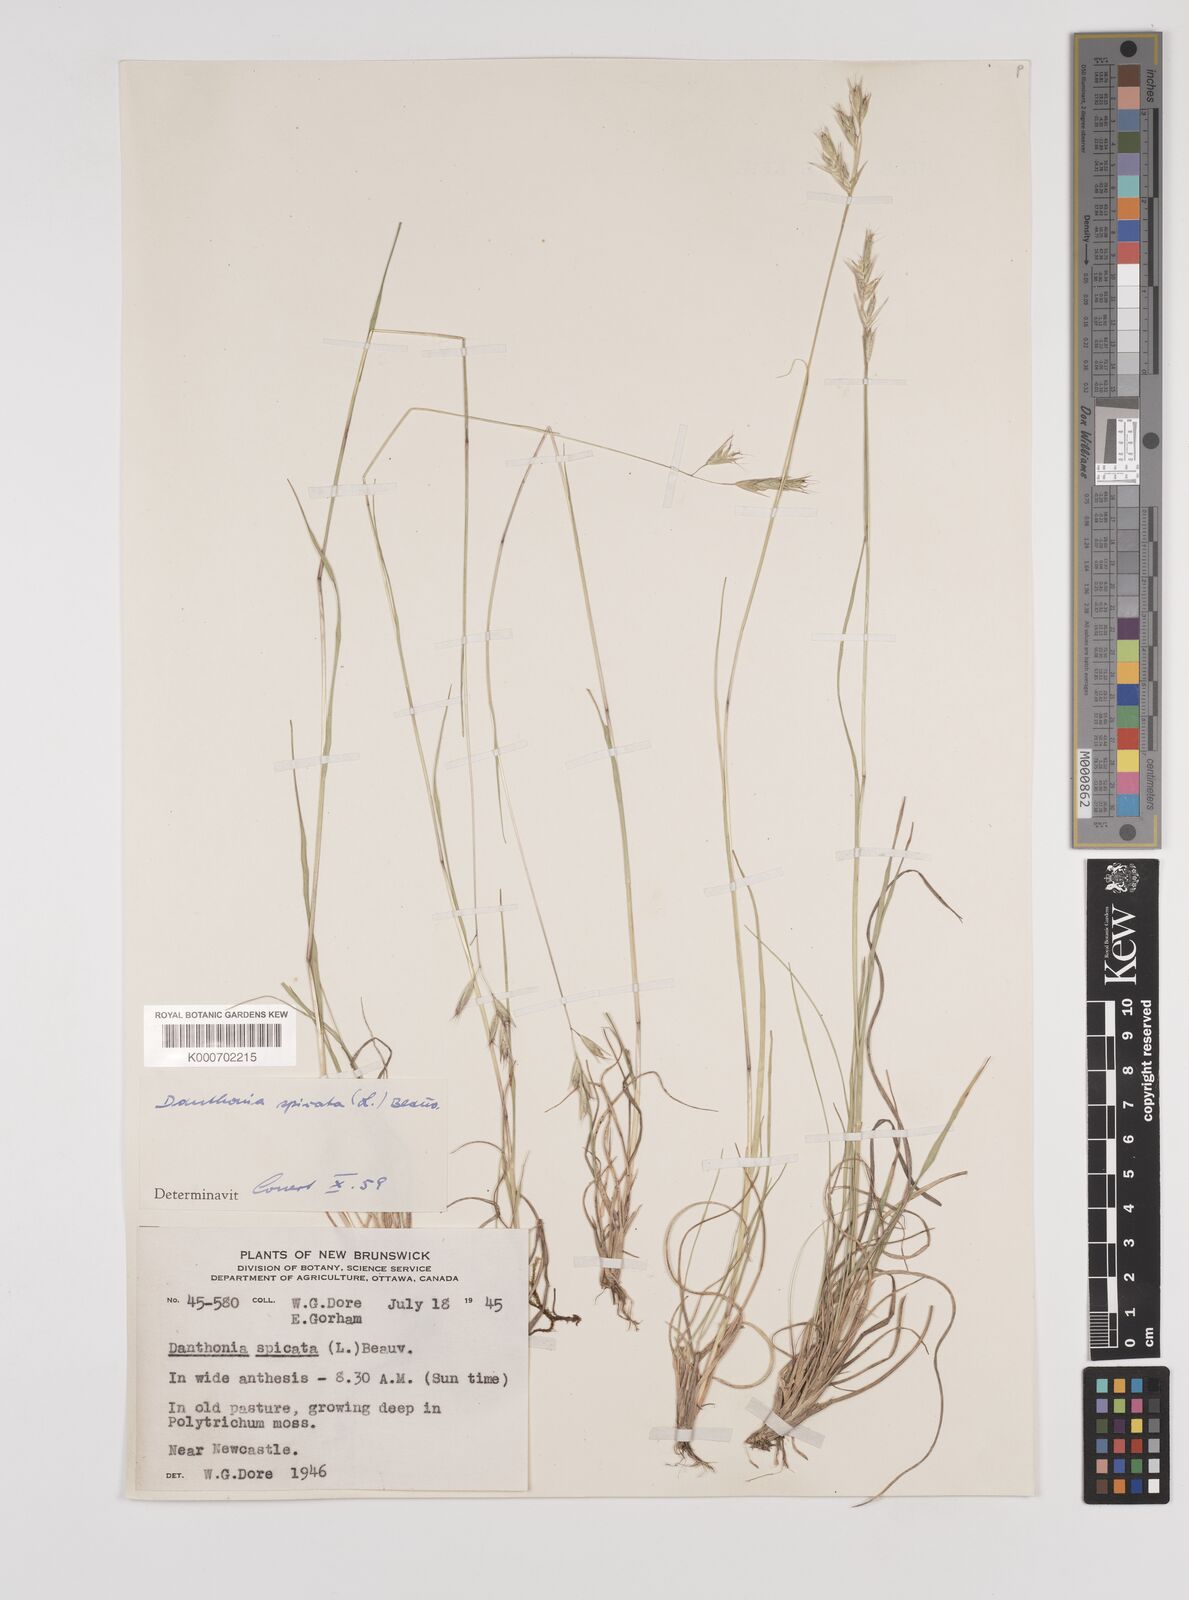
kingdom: Plantae
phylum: Tracheophyta
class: Liliopsida
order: Poales
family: Poaceae
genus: Danthonia
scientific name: Danthonia spicata
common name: Common wild oatgrass
